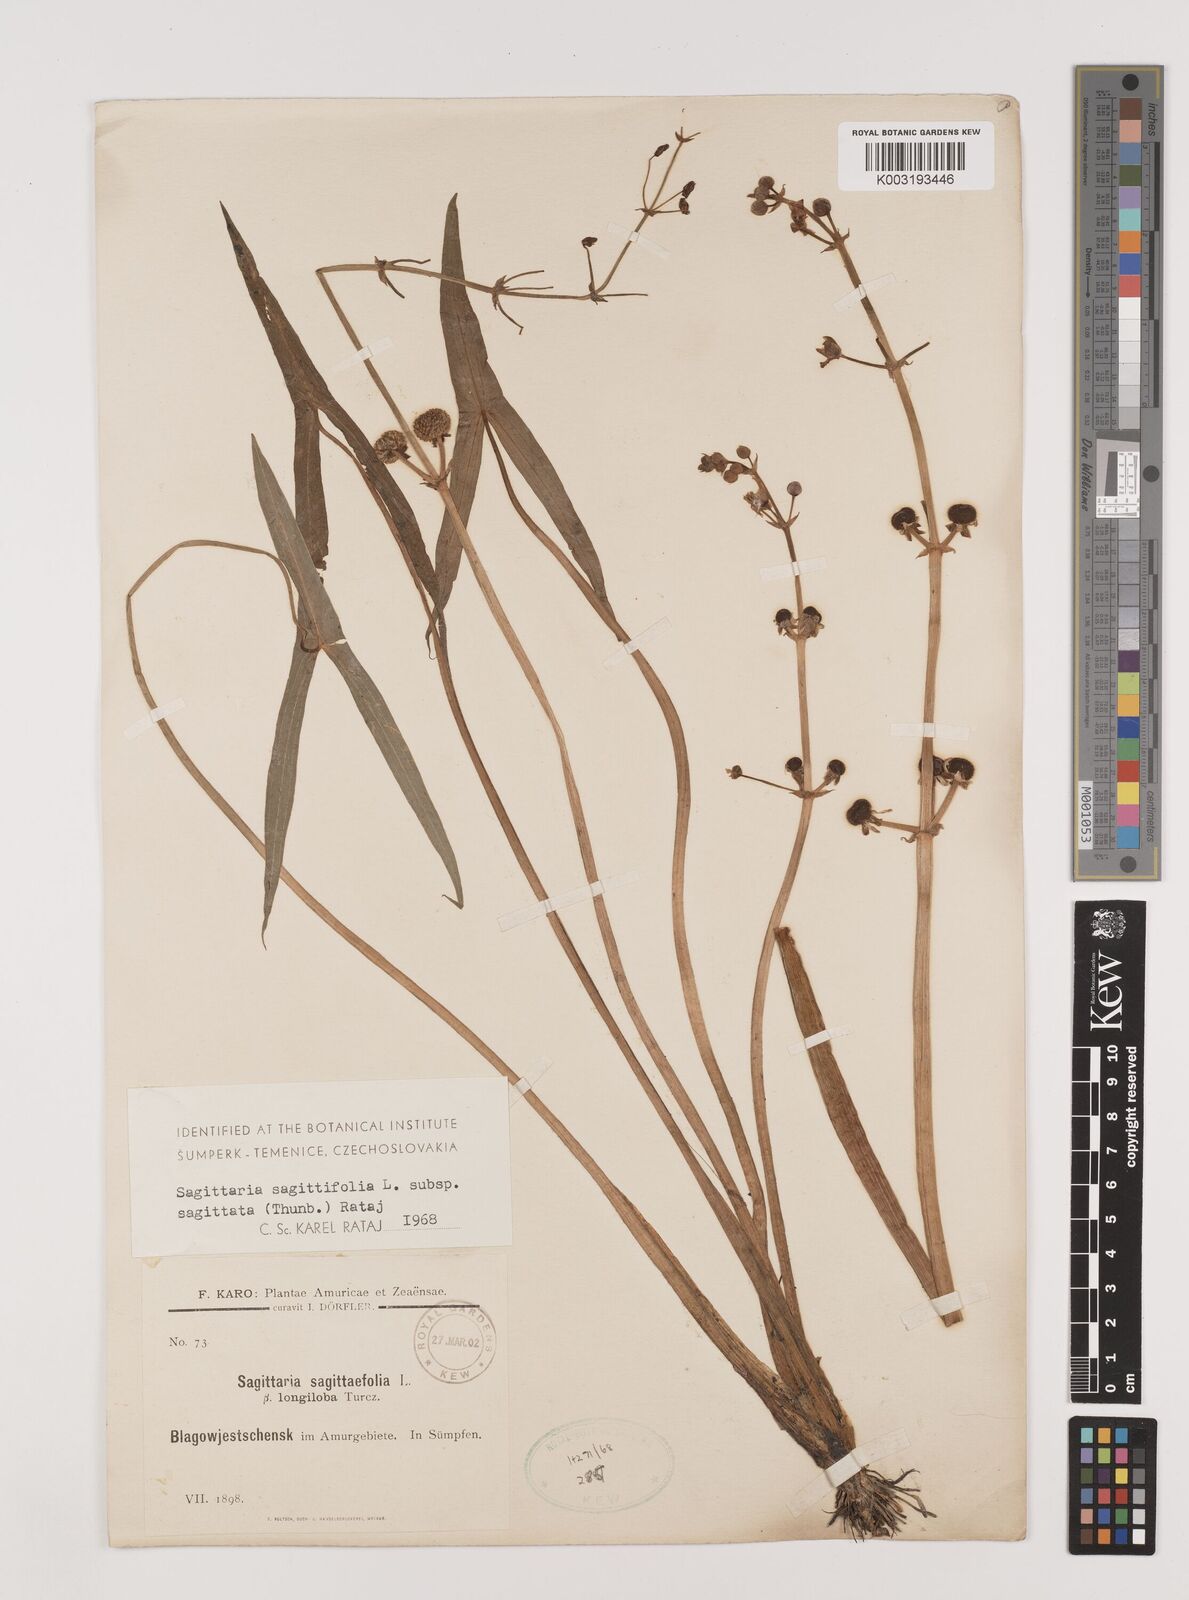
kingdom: Plantae
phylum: Tracheophyta
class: Liliopsida
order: Alismatales
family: Alismataceae
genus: Sagittaria
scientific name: Sagittaria trifolia
